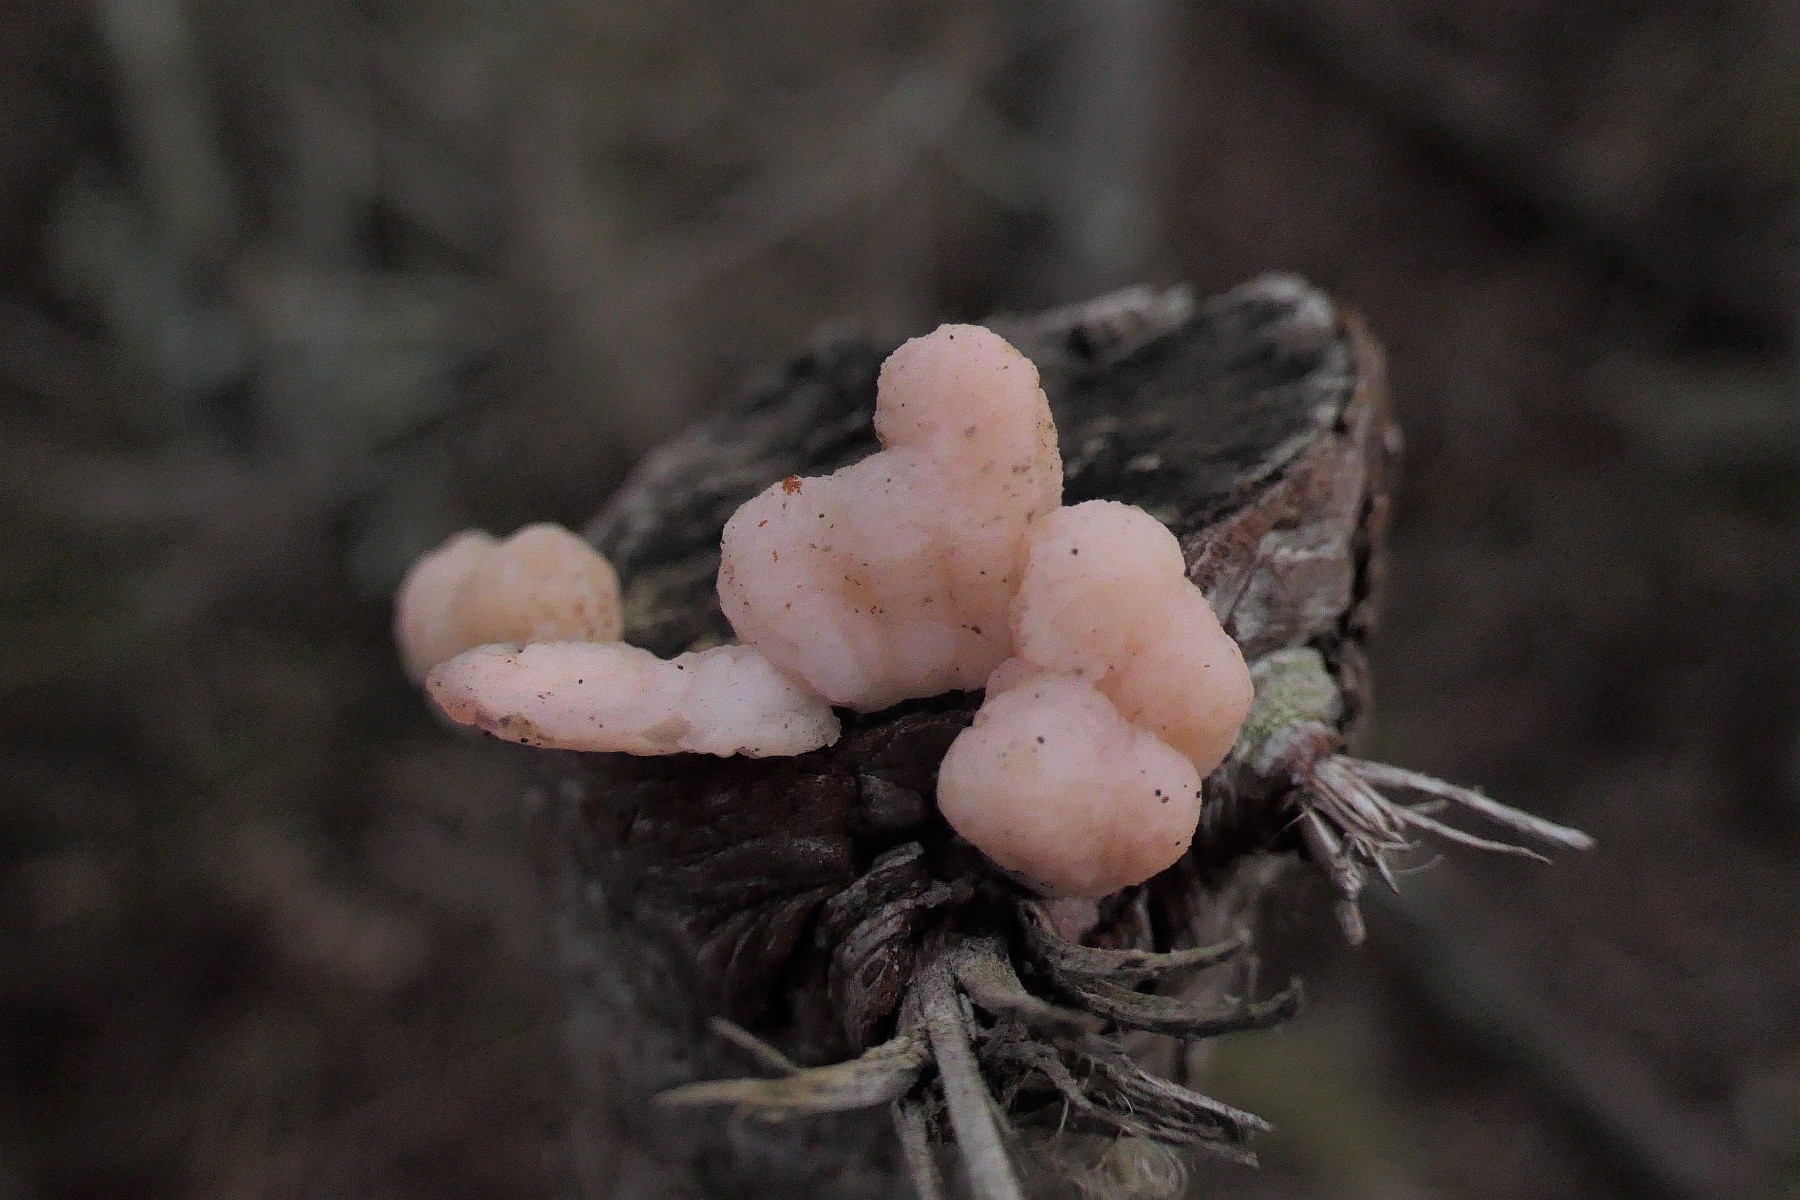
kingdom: Fungi
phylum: Basidiomycota
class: Tremellomycetes
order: Tremellales
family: Naemateliaceae
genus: Naematelia
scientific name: Naematelia encephala
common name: fyrre-bævresvamp
